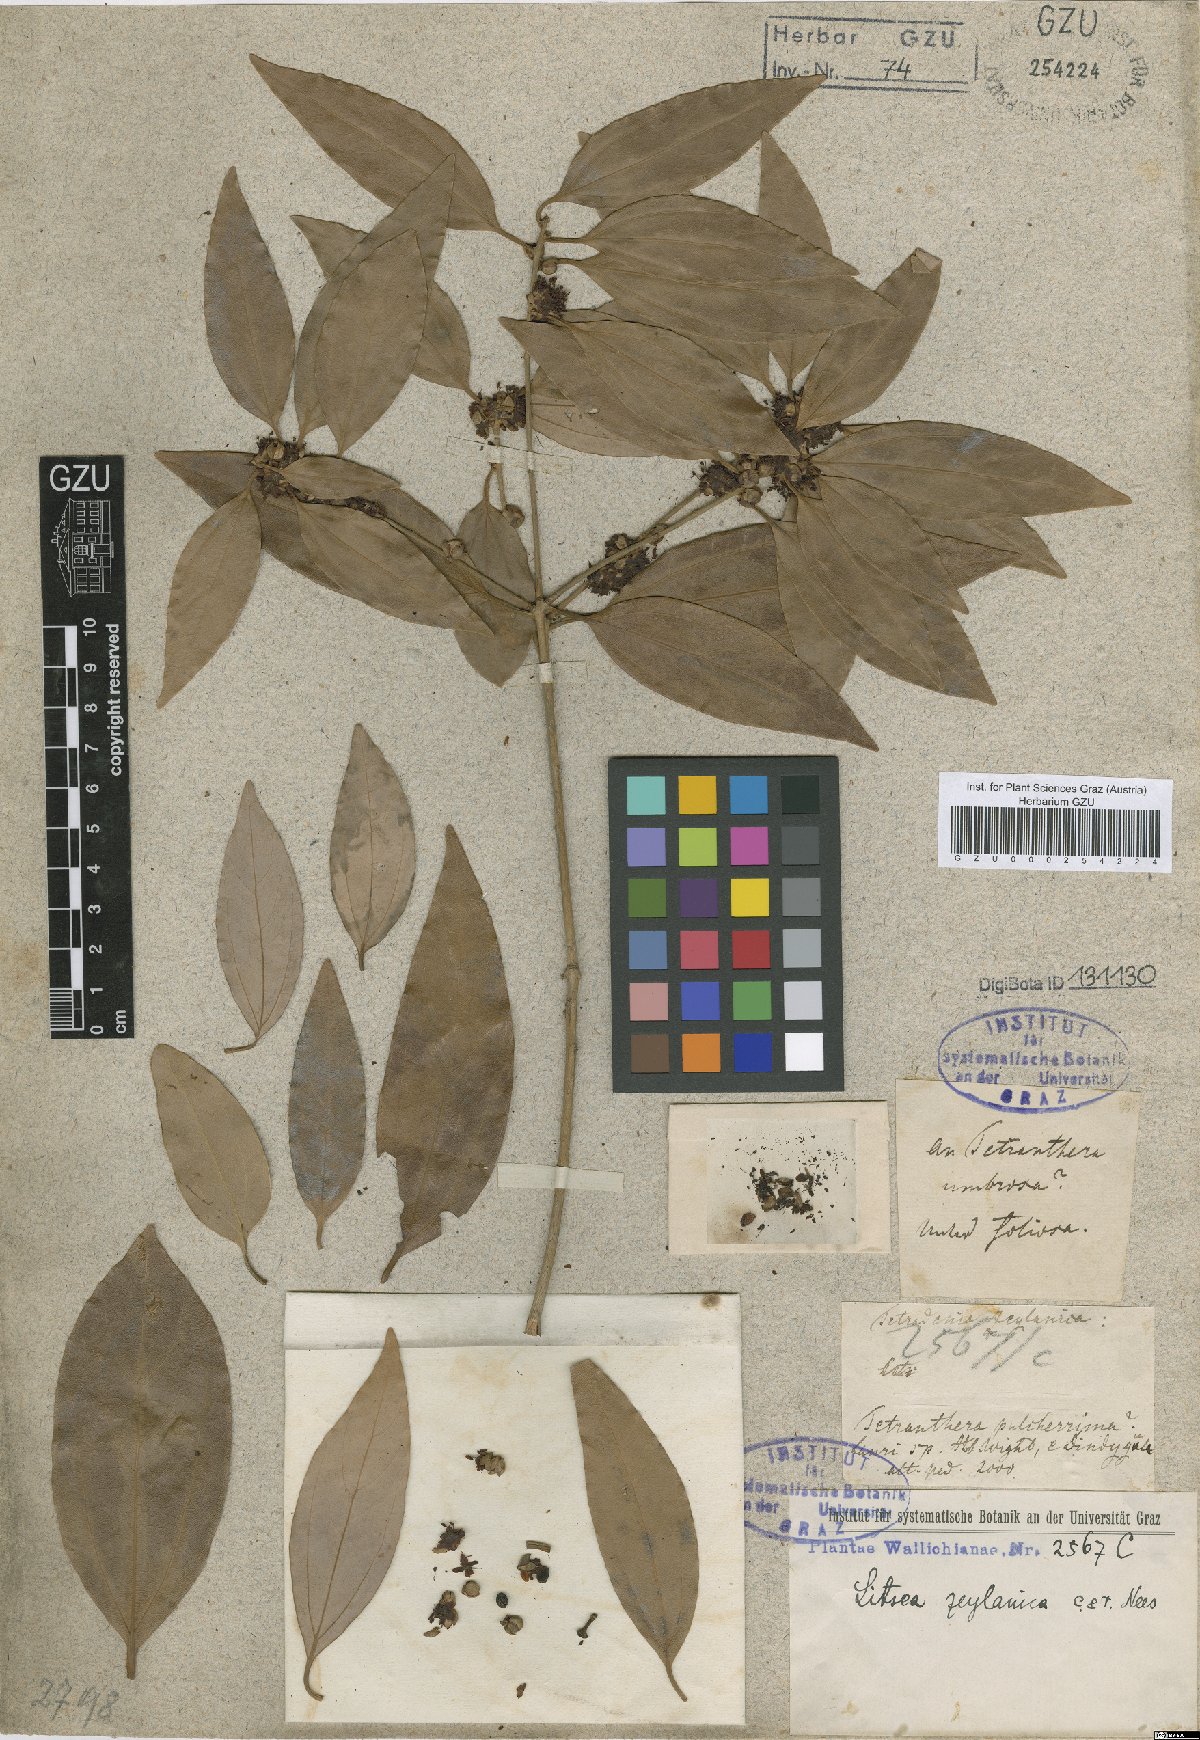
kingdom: Plantae
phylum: Tracheophyta
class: Magnoliopsida
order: Laurales
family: Lauraceae
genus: Lindera
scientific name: Lindera pulcherrima
